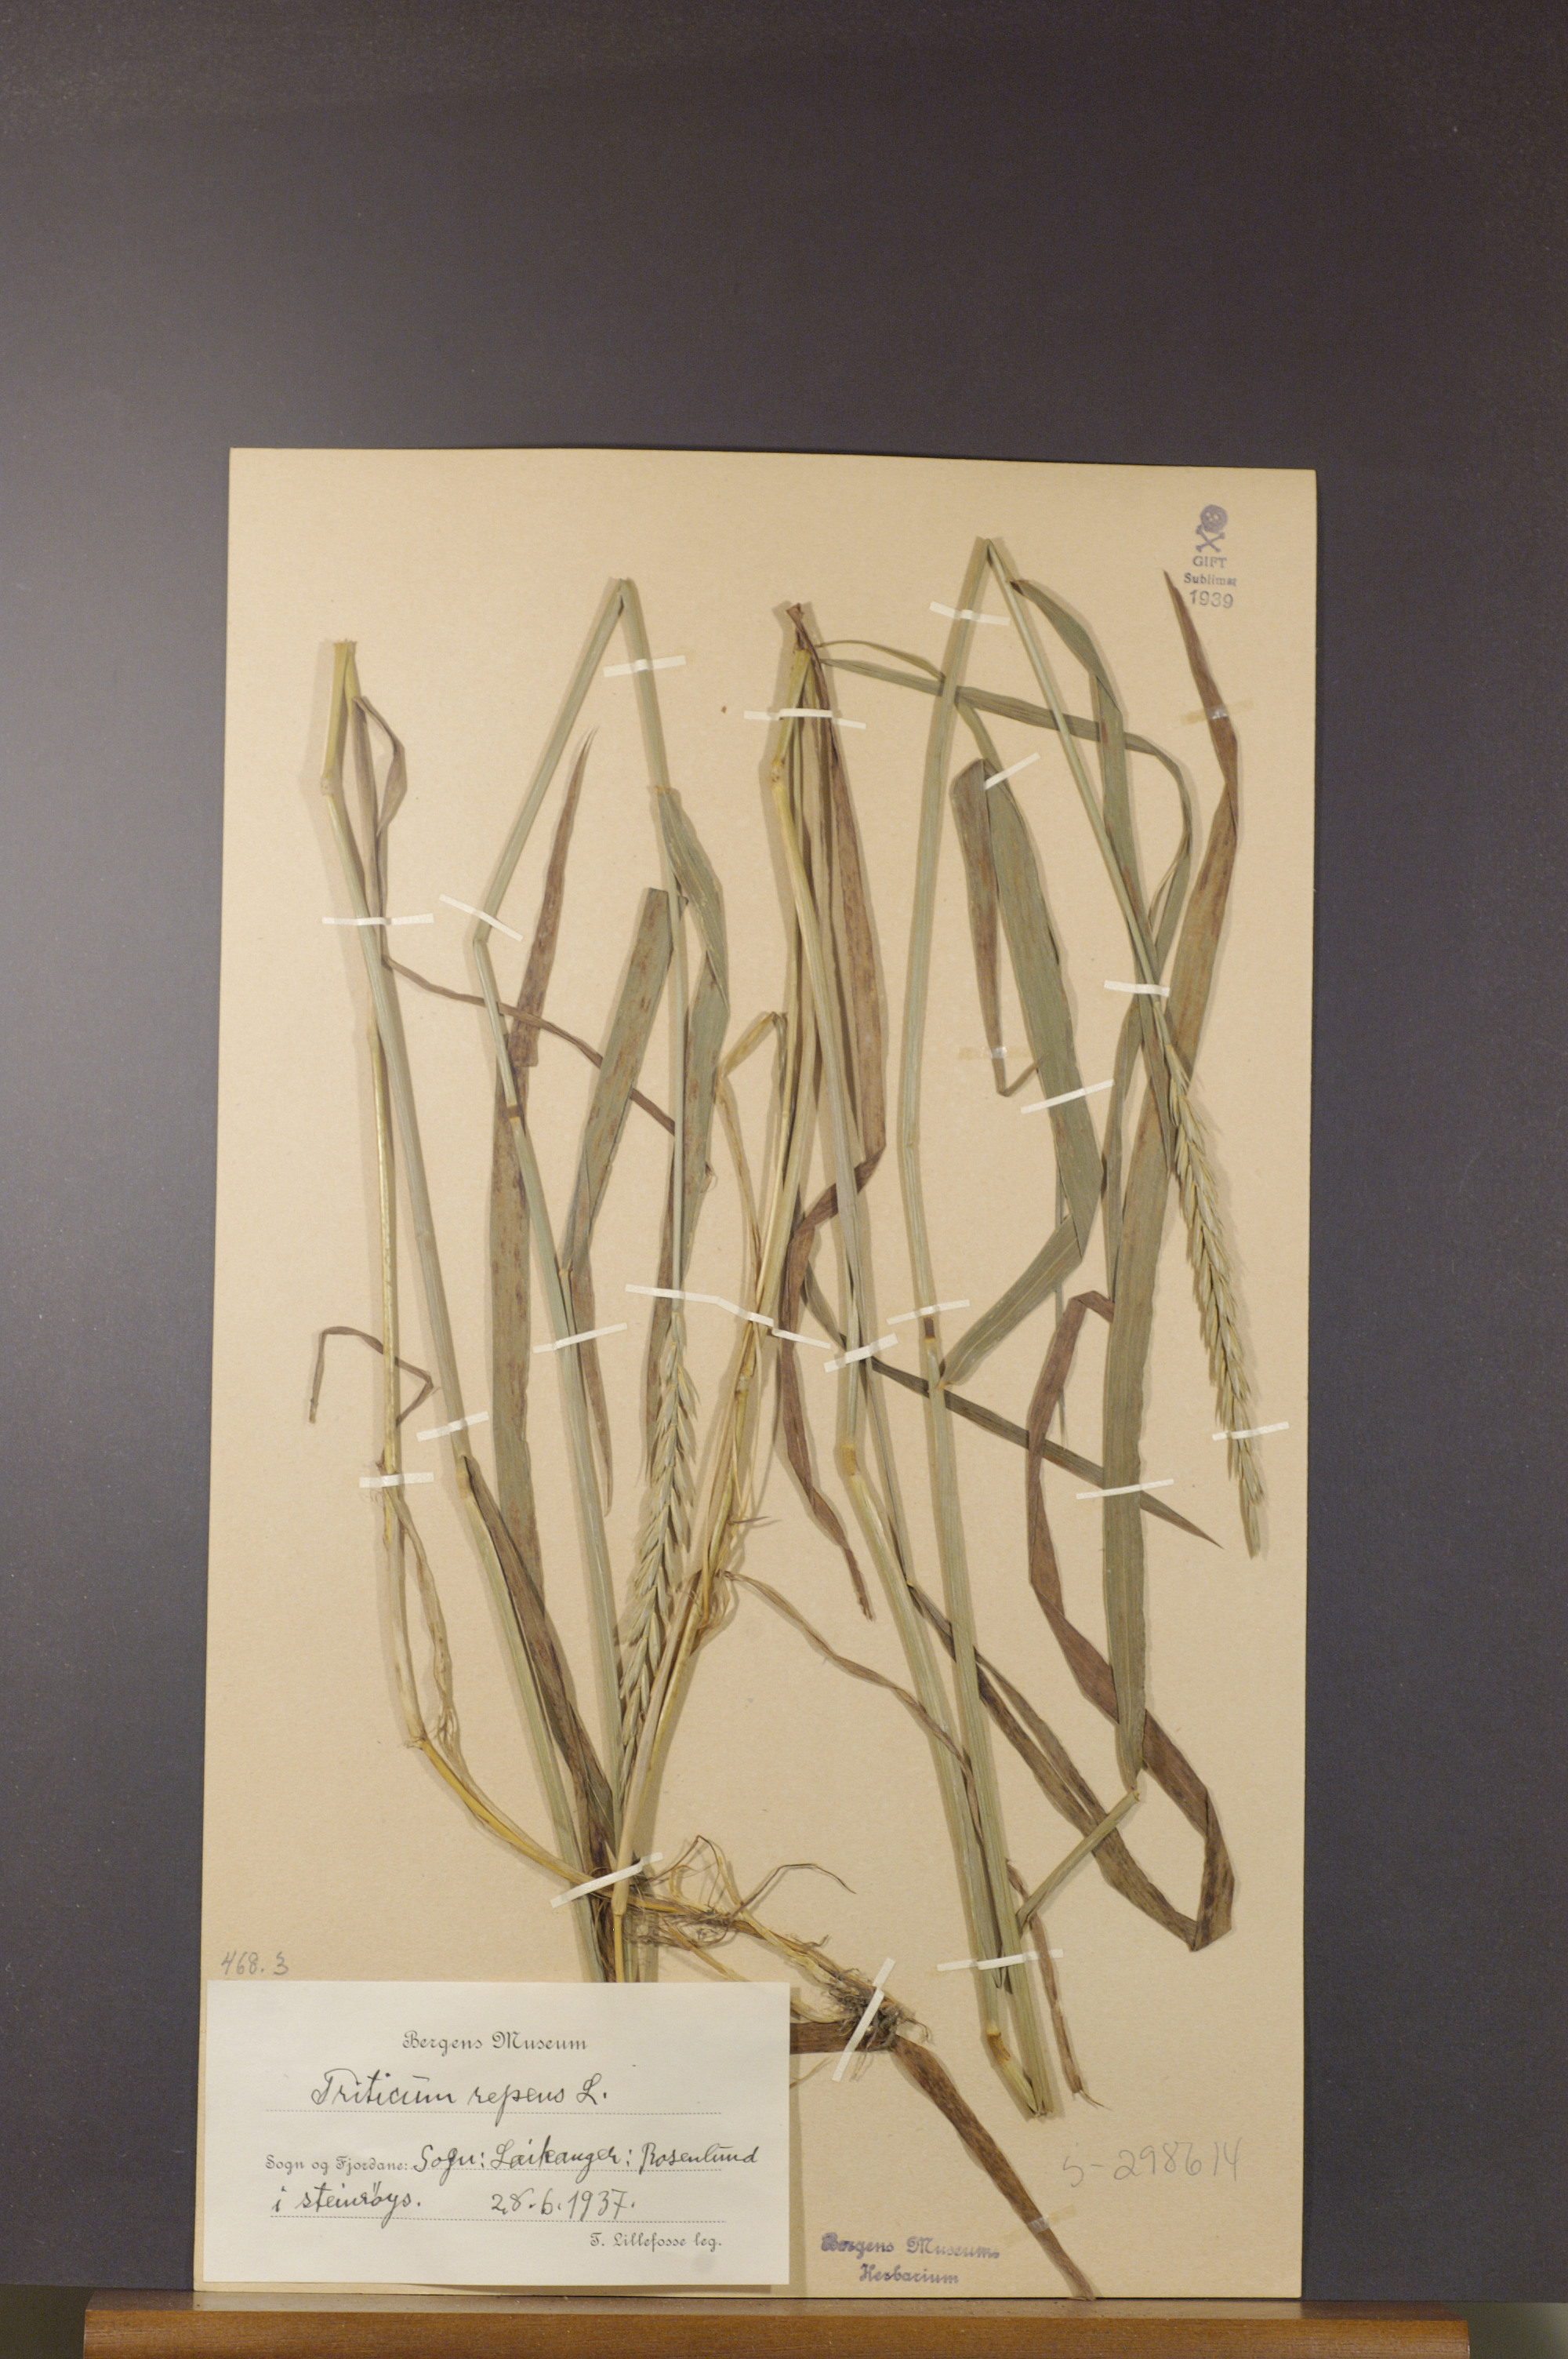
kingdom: Plantae
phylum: Tracheophyta
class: Liliopsida
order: Poales
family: Poaceae
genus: Elymus
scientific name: Elymus repens
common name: Quackgrass
